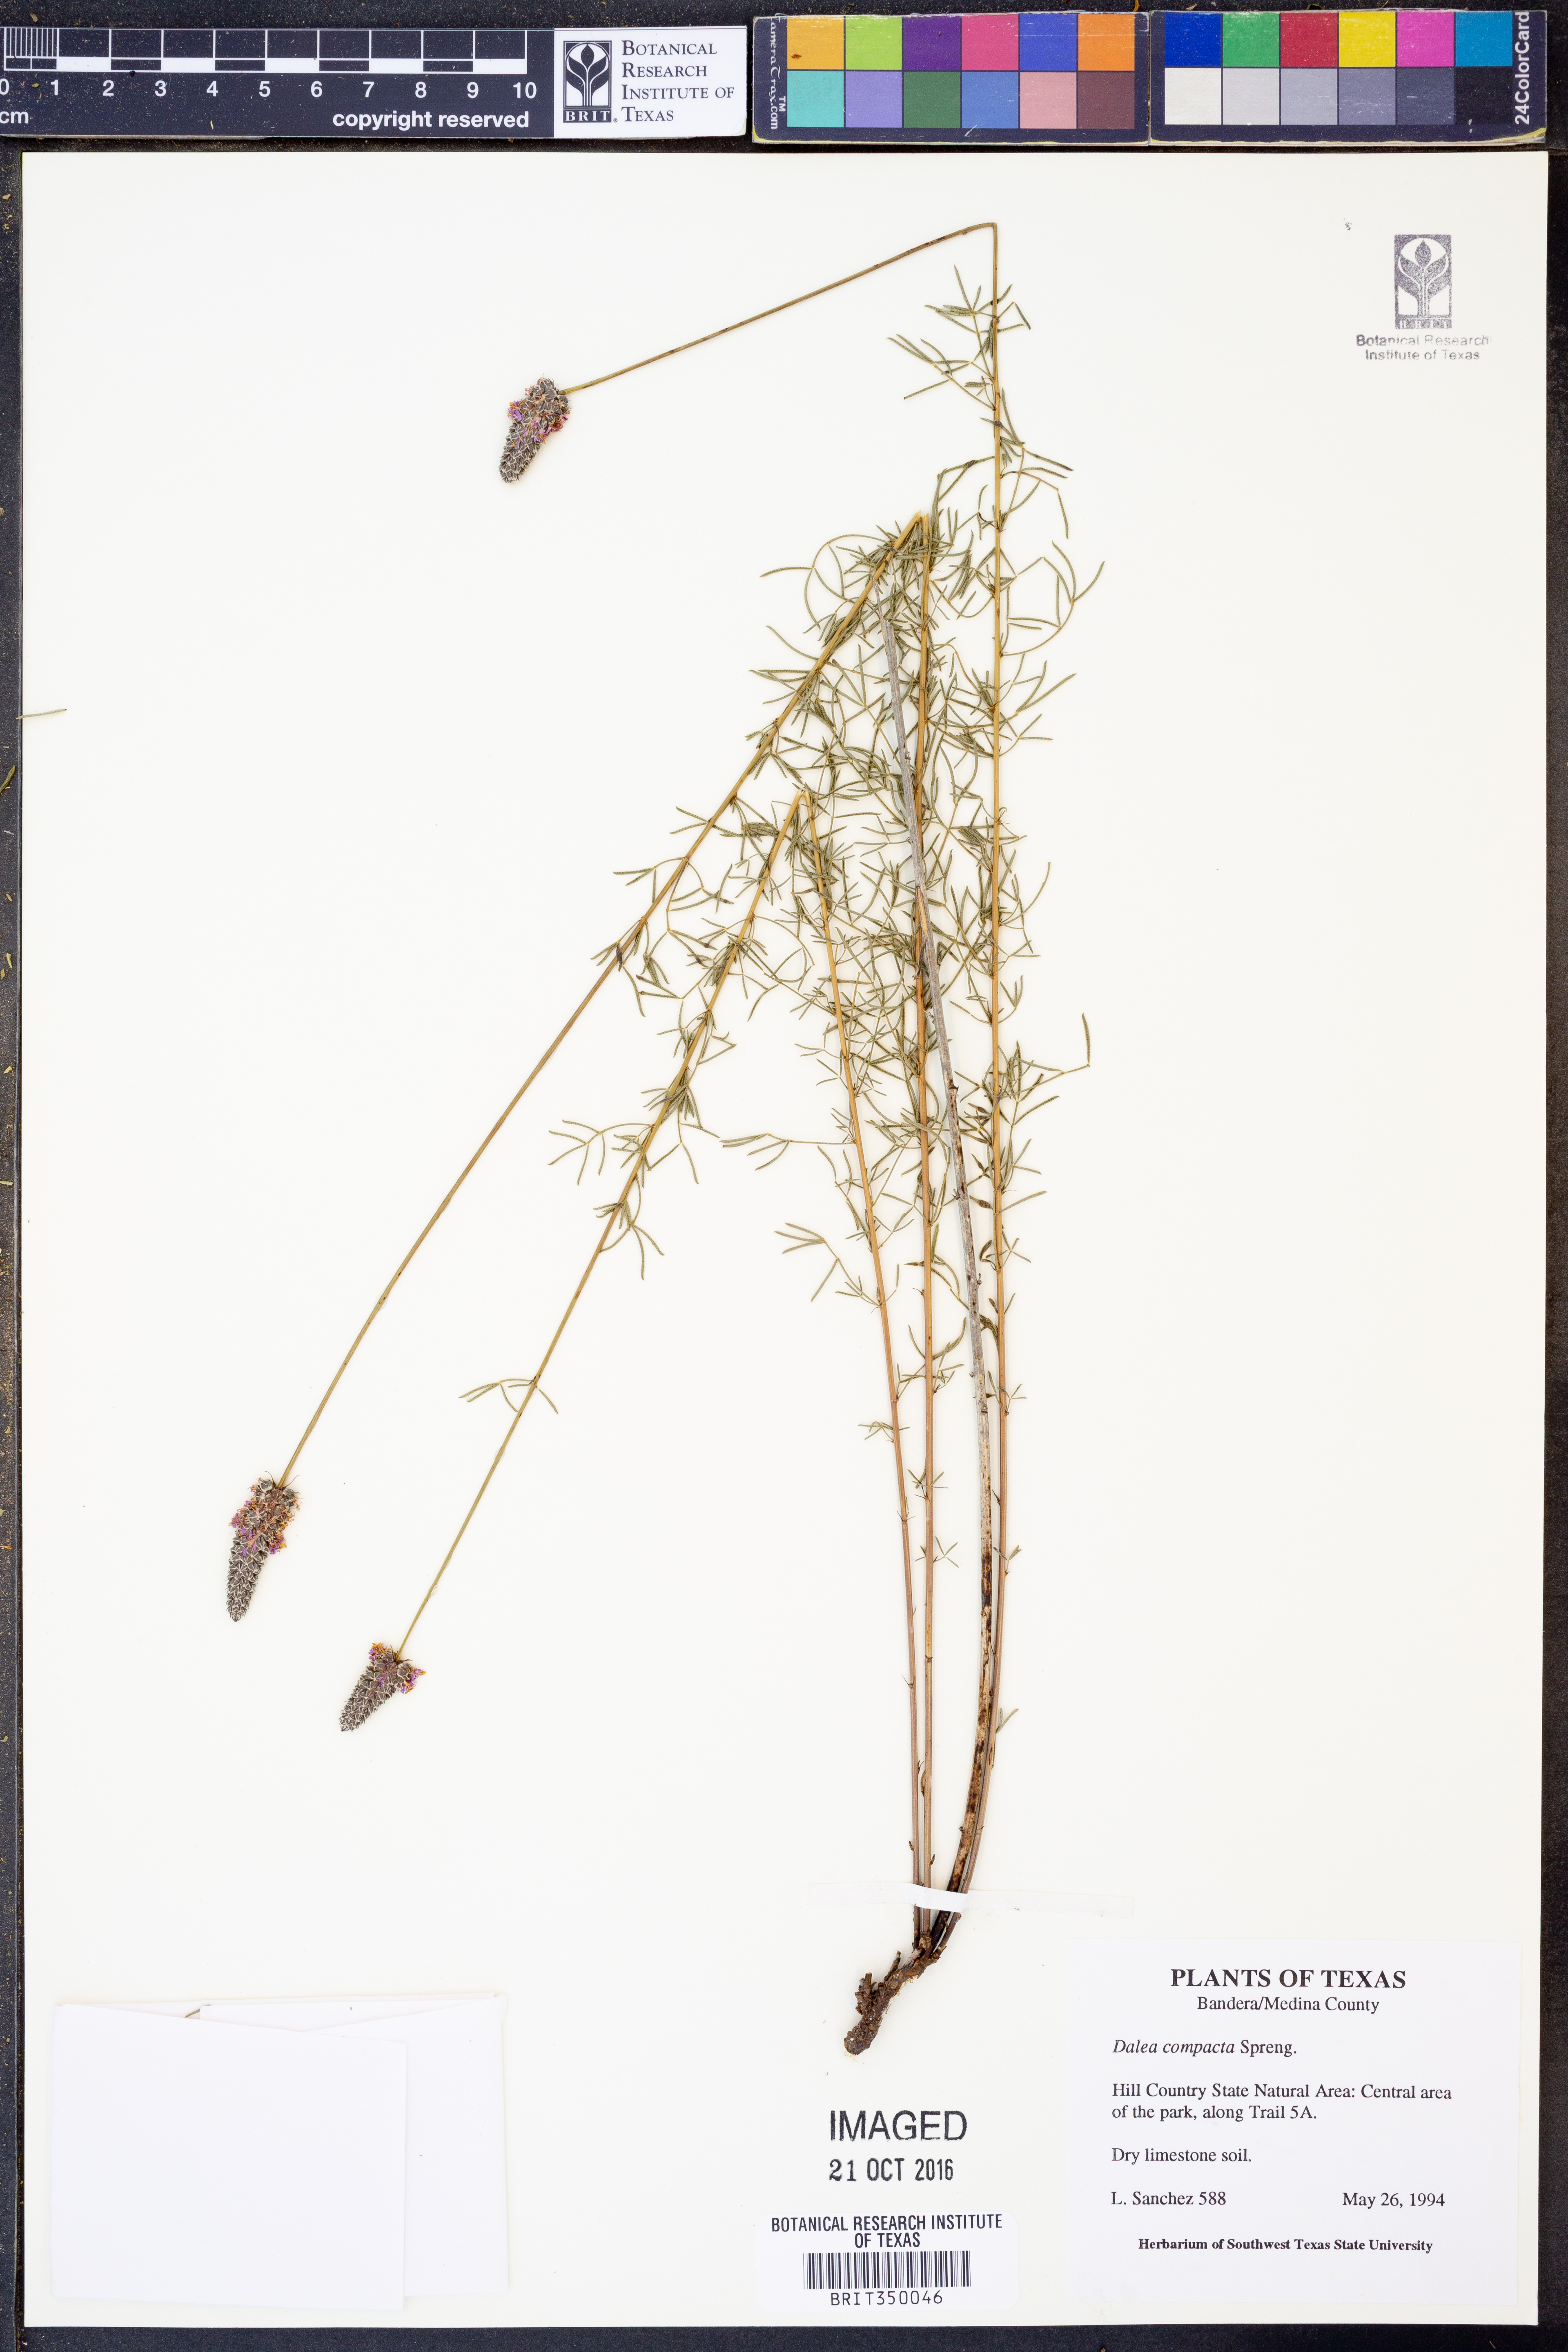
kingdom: Plantae
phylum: Tracheophyta
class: Magnoliopsida
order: Fabales
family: Fabaceae
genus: Dalea
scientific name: Dalea compacta
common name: Compact prairie-clover
